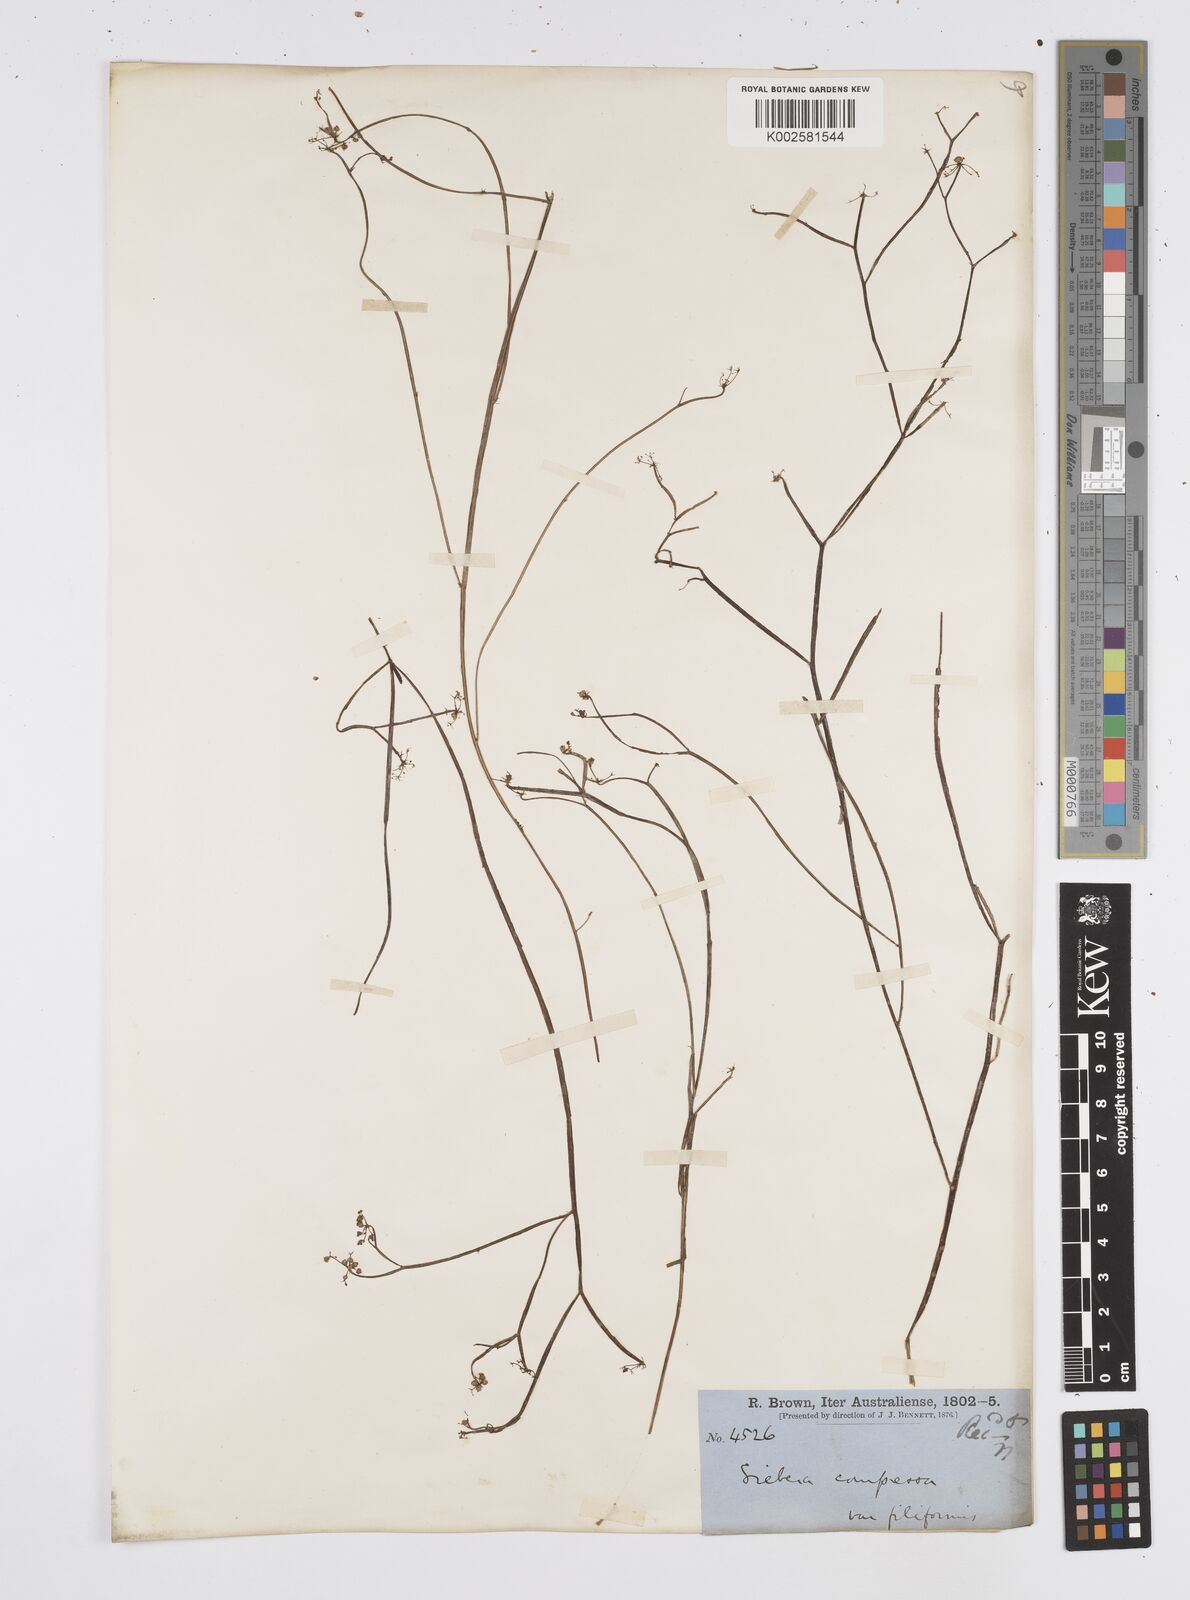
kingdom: Plantae
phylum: Tracheophyta
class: Magnoliopsida
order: Apiales
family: Apiaceae
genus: Centella
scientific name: Centella
